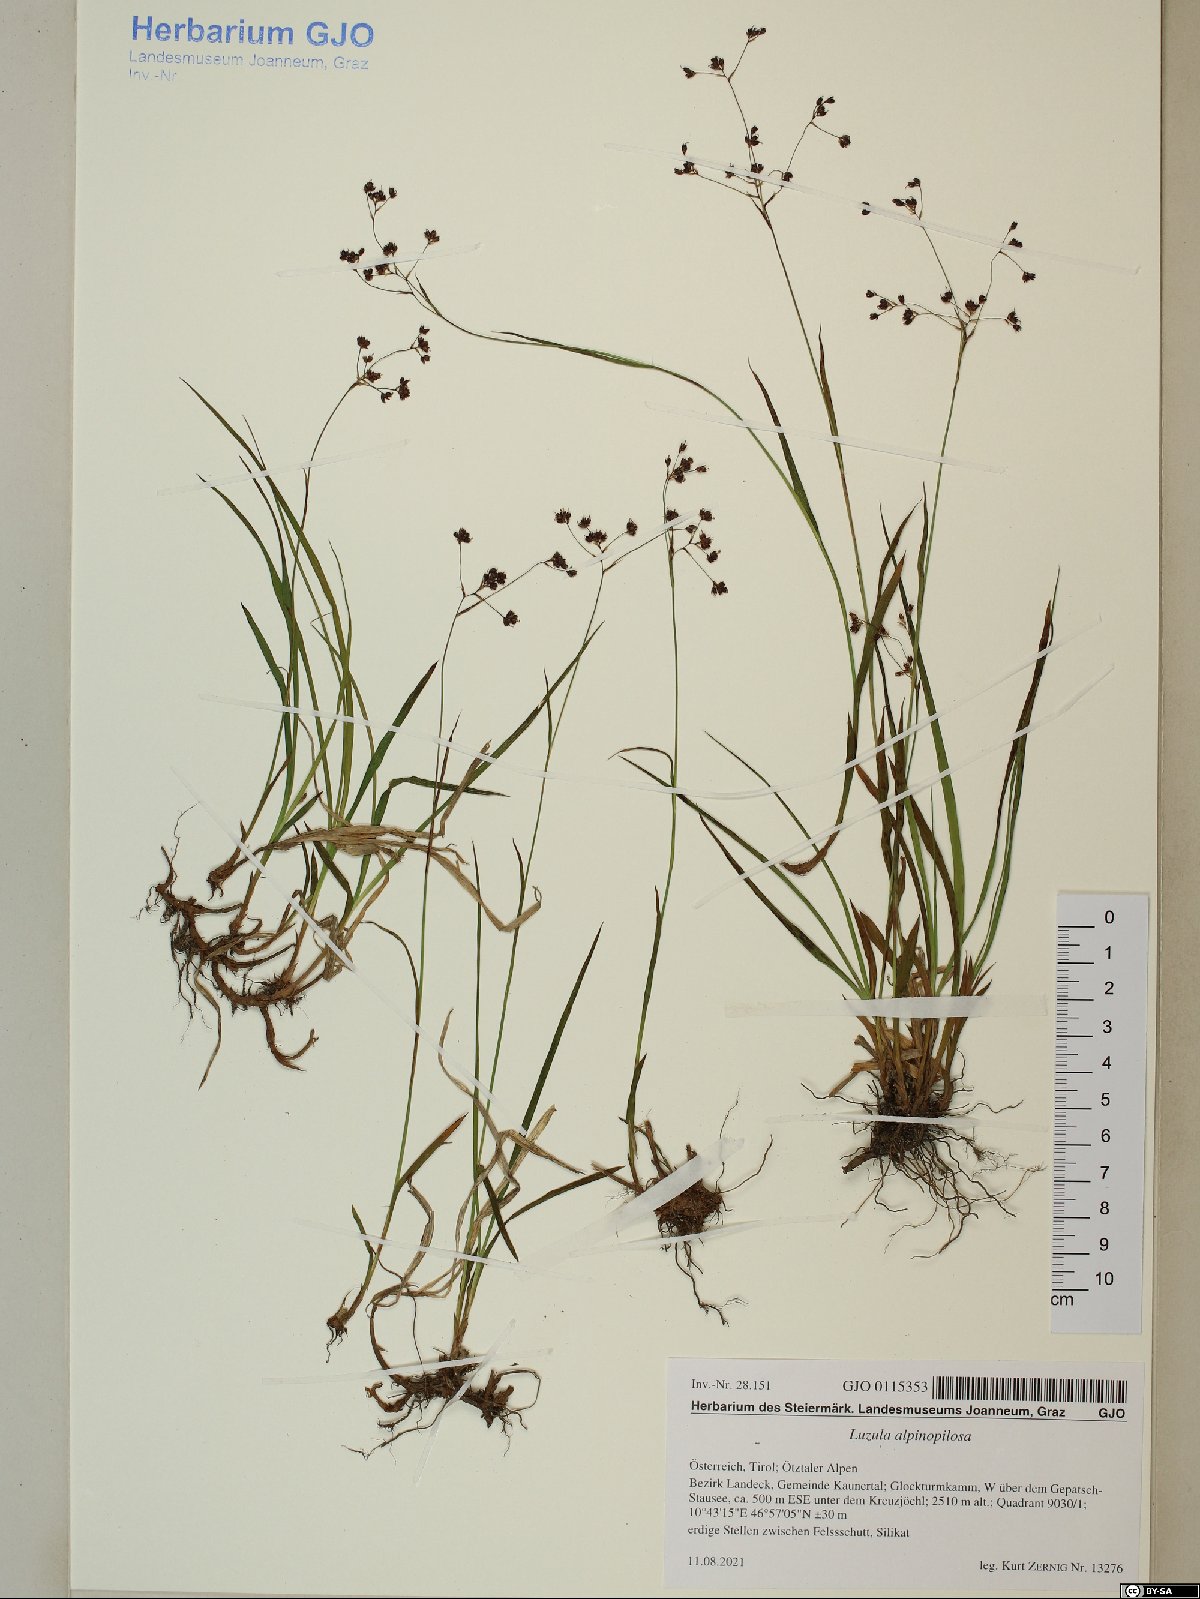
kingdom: Plantae
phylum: Tracheophyta
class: Liliopsida
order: Poales
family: Juncaceae
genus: Luzula
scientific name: Luzula alpinopilosa
